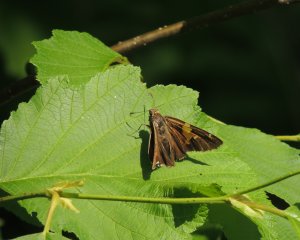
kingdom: Animalia
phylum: Arthropoda
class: Insecta
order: Lepidoptera
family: Hesperiidae
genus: Epargyreus
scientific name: Epargyreus clarus
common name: Silver-spotted Skipper
